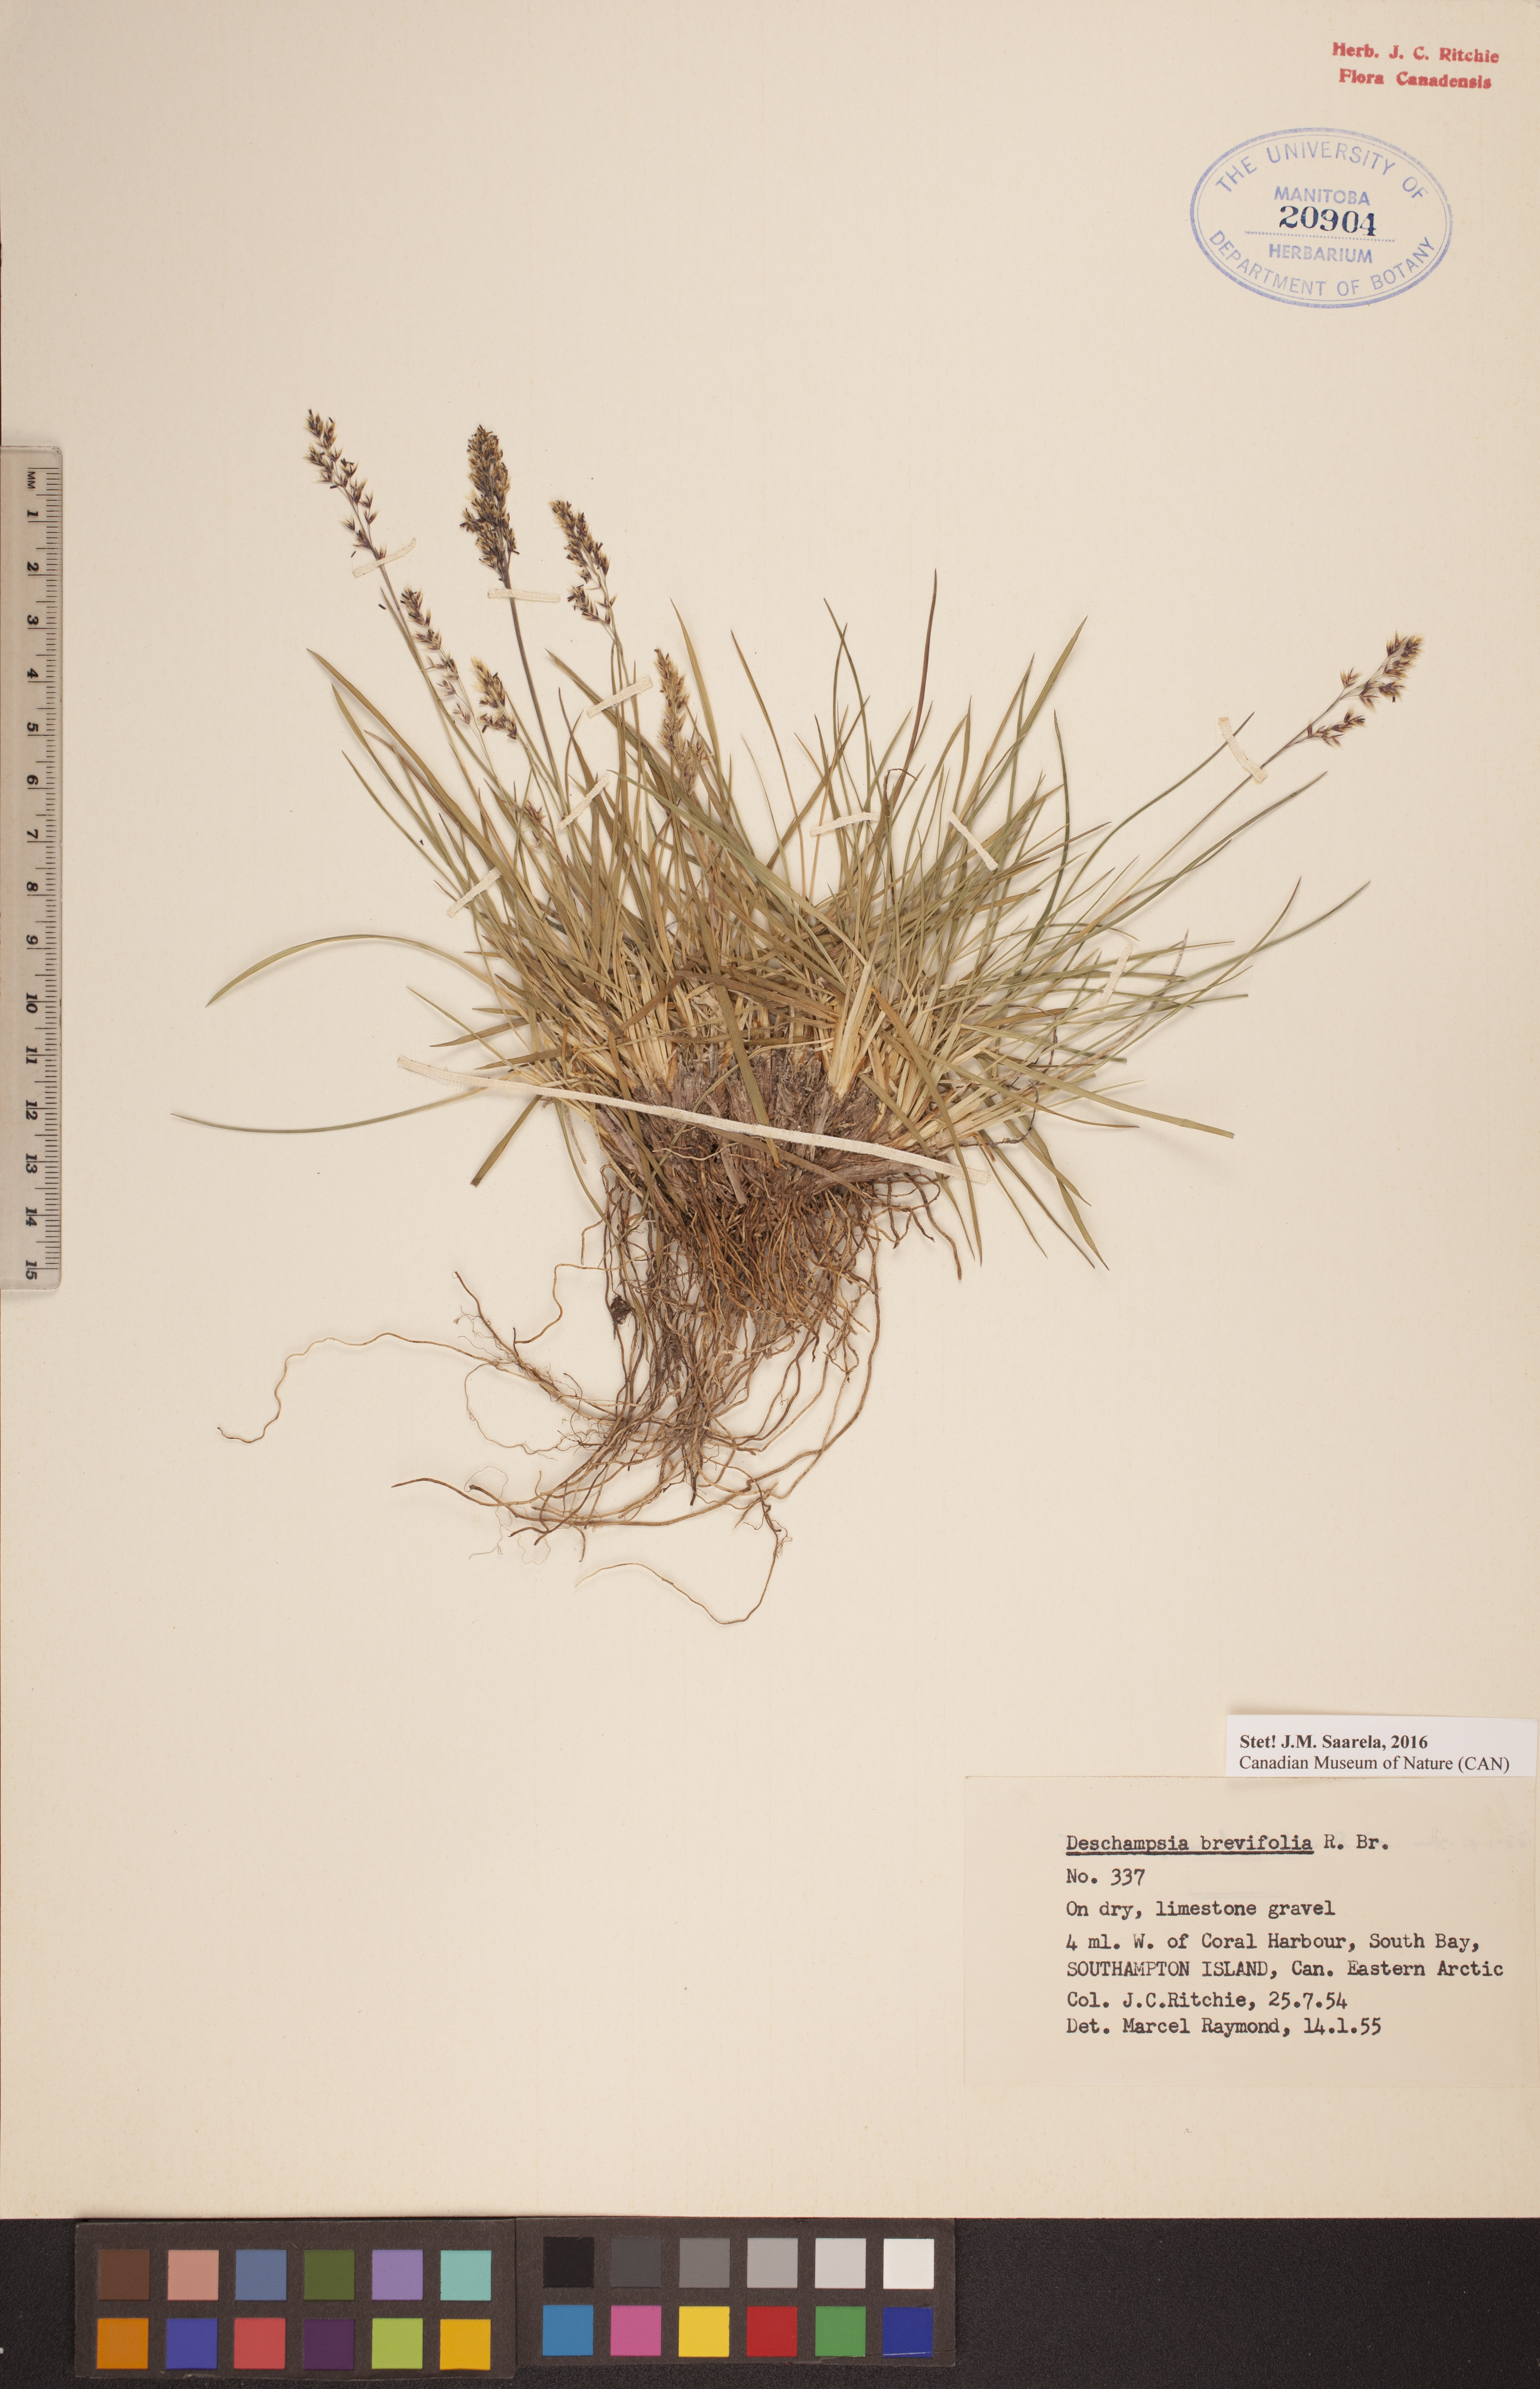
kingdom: Plantae
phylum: Tracheophyta
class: Liliopsida
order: Poales
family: Poaceae
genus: Deschampsia
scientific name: Deschampsia cespitosa
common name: Tufted hair-grass
